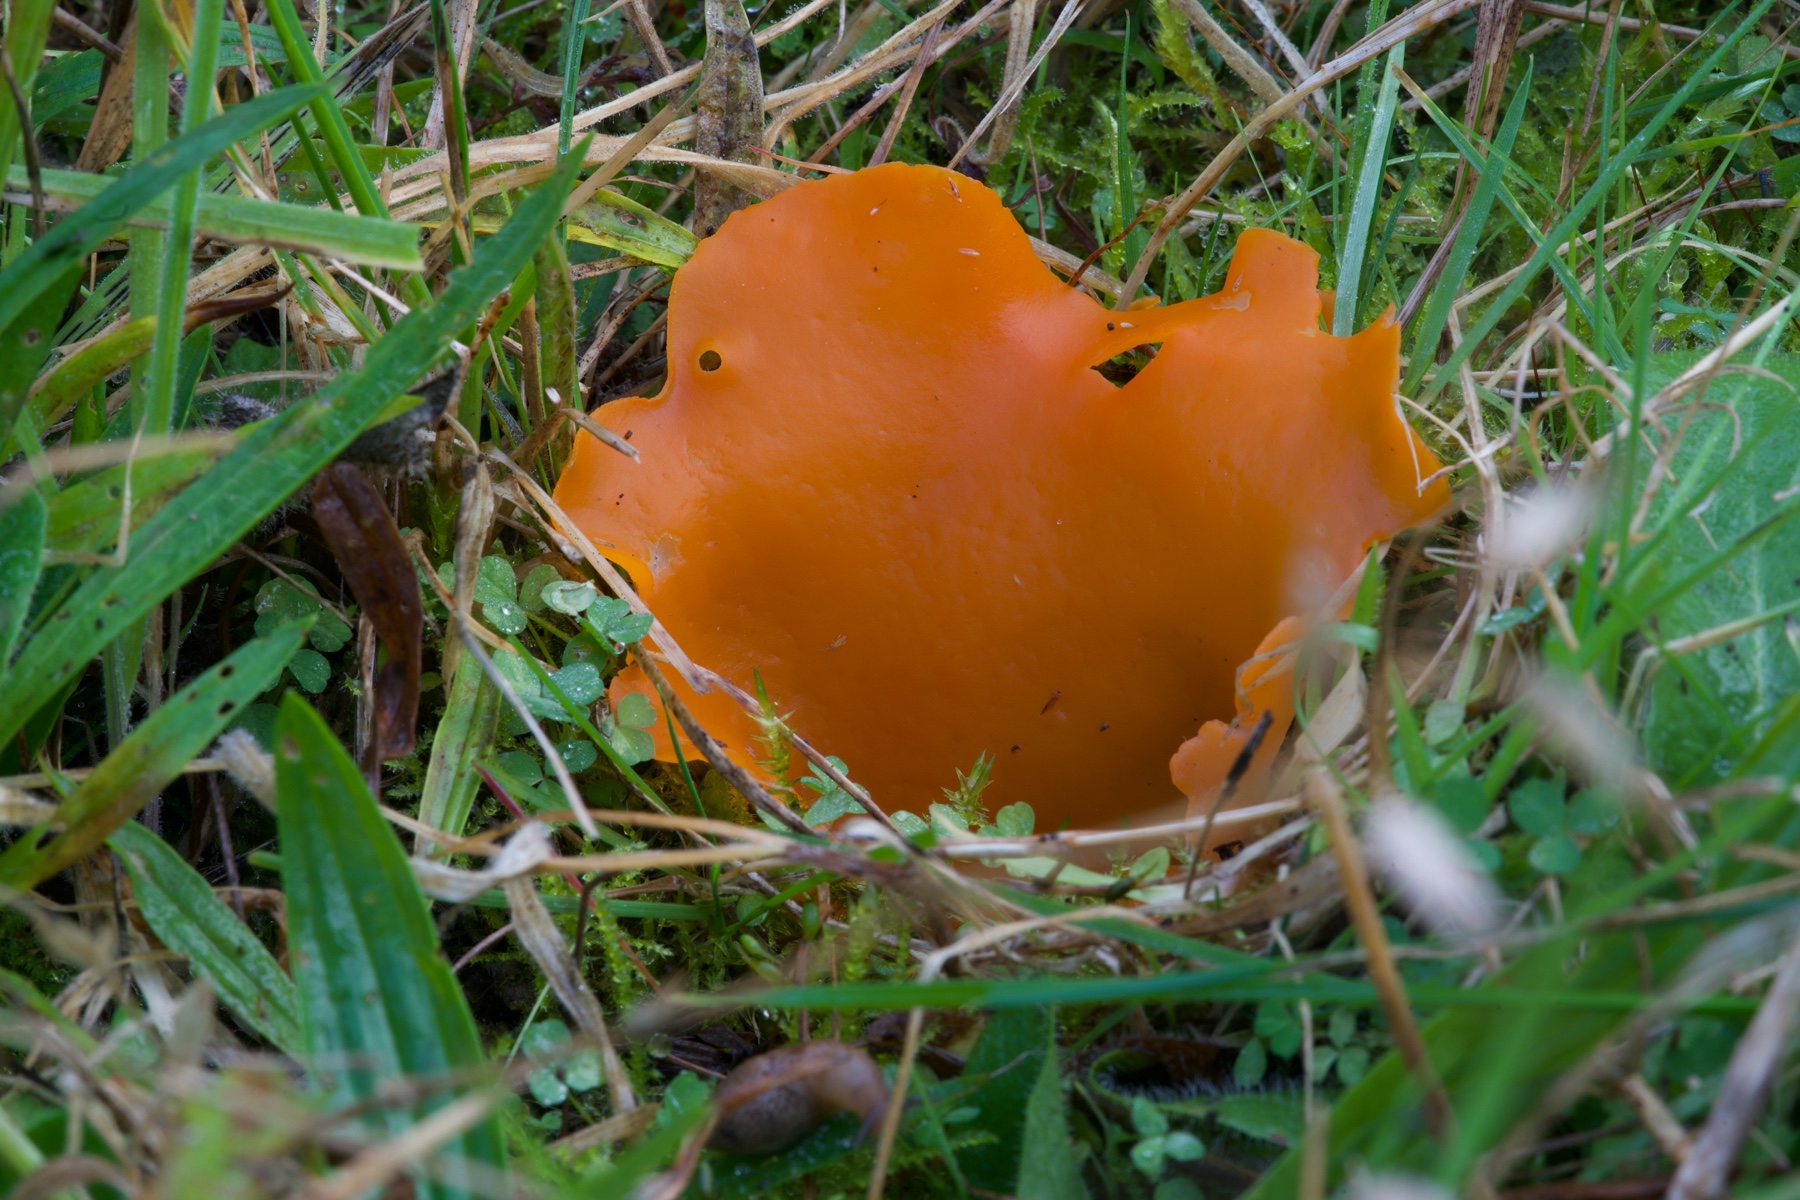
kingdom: Fungi
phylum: Ascomycota
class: Pezizomycetes
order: Pezizales
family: Pyronemataceae
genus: Aleuria
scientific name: Aleuria aurantia
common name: almindelig orangebæger
